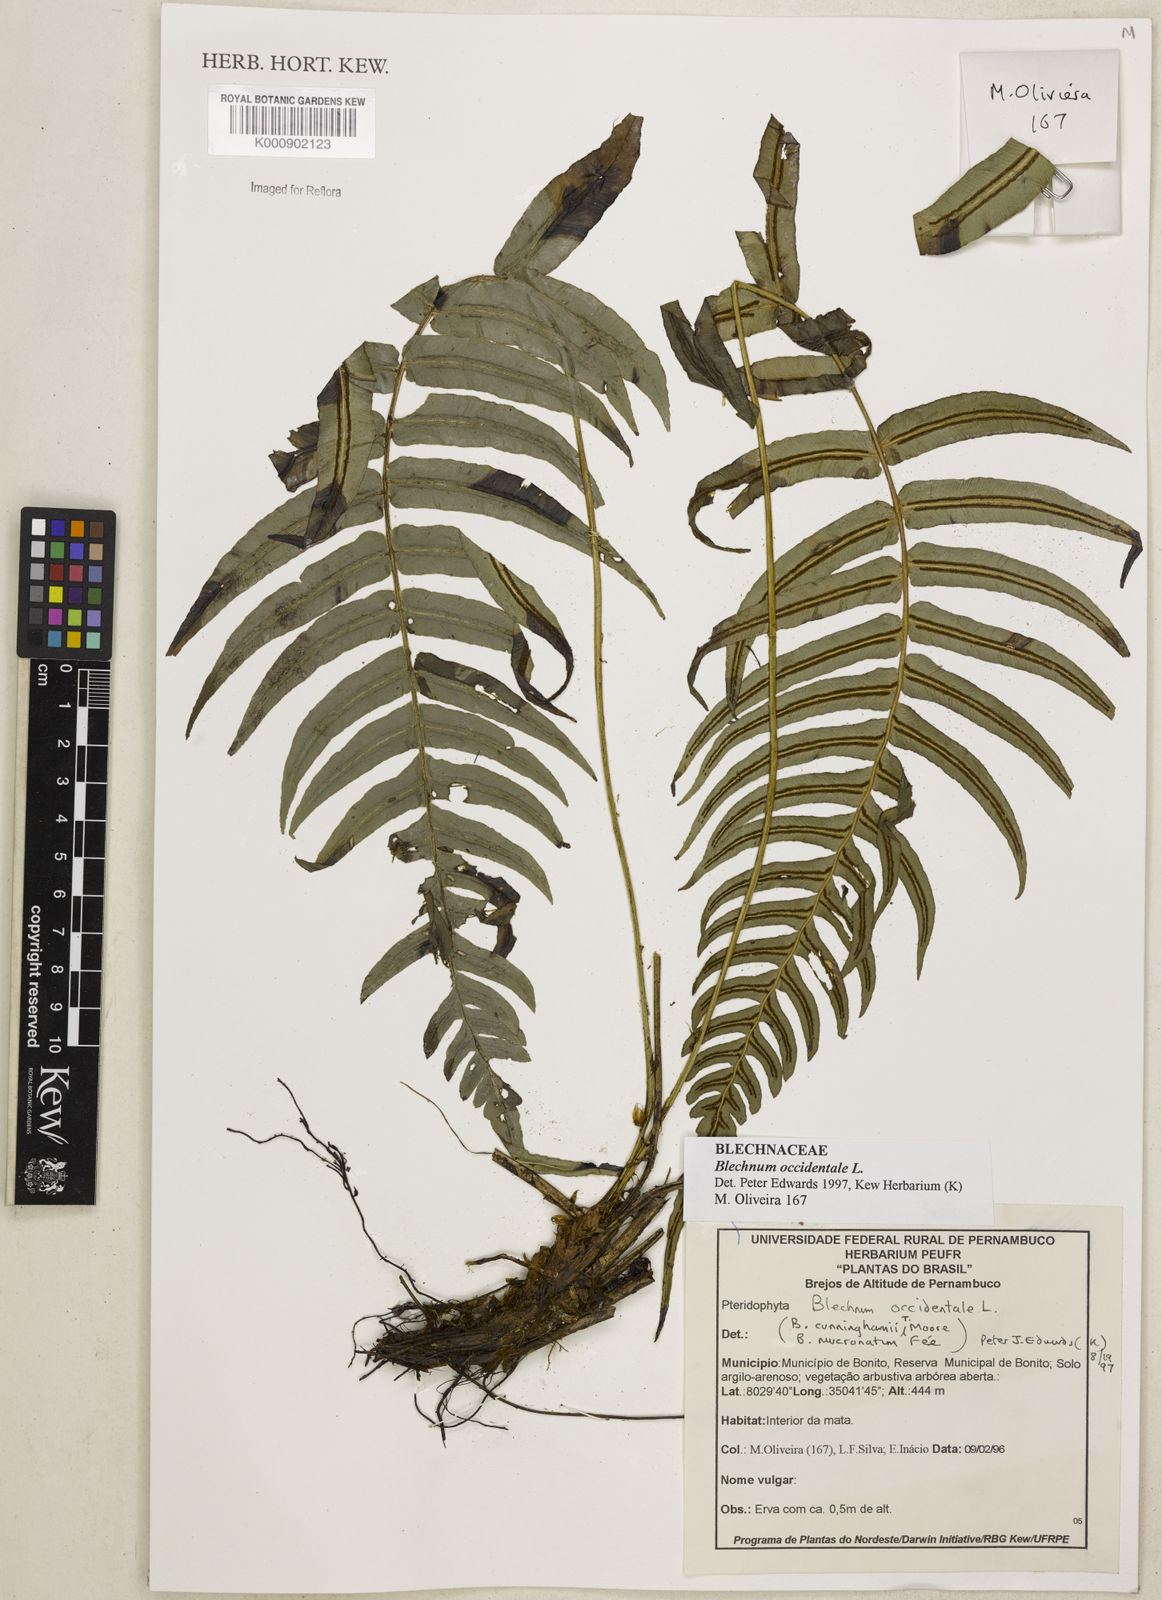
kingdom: Plantae
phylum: Tracheophyta
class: Polypodiopsida
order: Polypodiales
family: Blechnaceae
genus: Blechnum
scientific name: Blechnum occidentale
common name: Hammock fern
